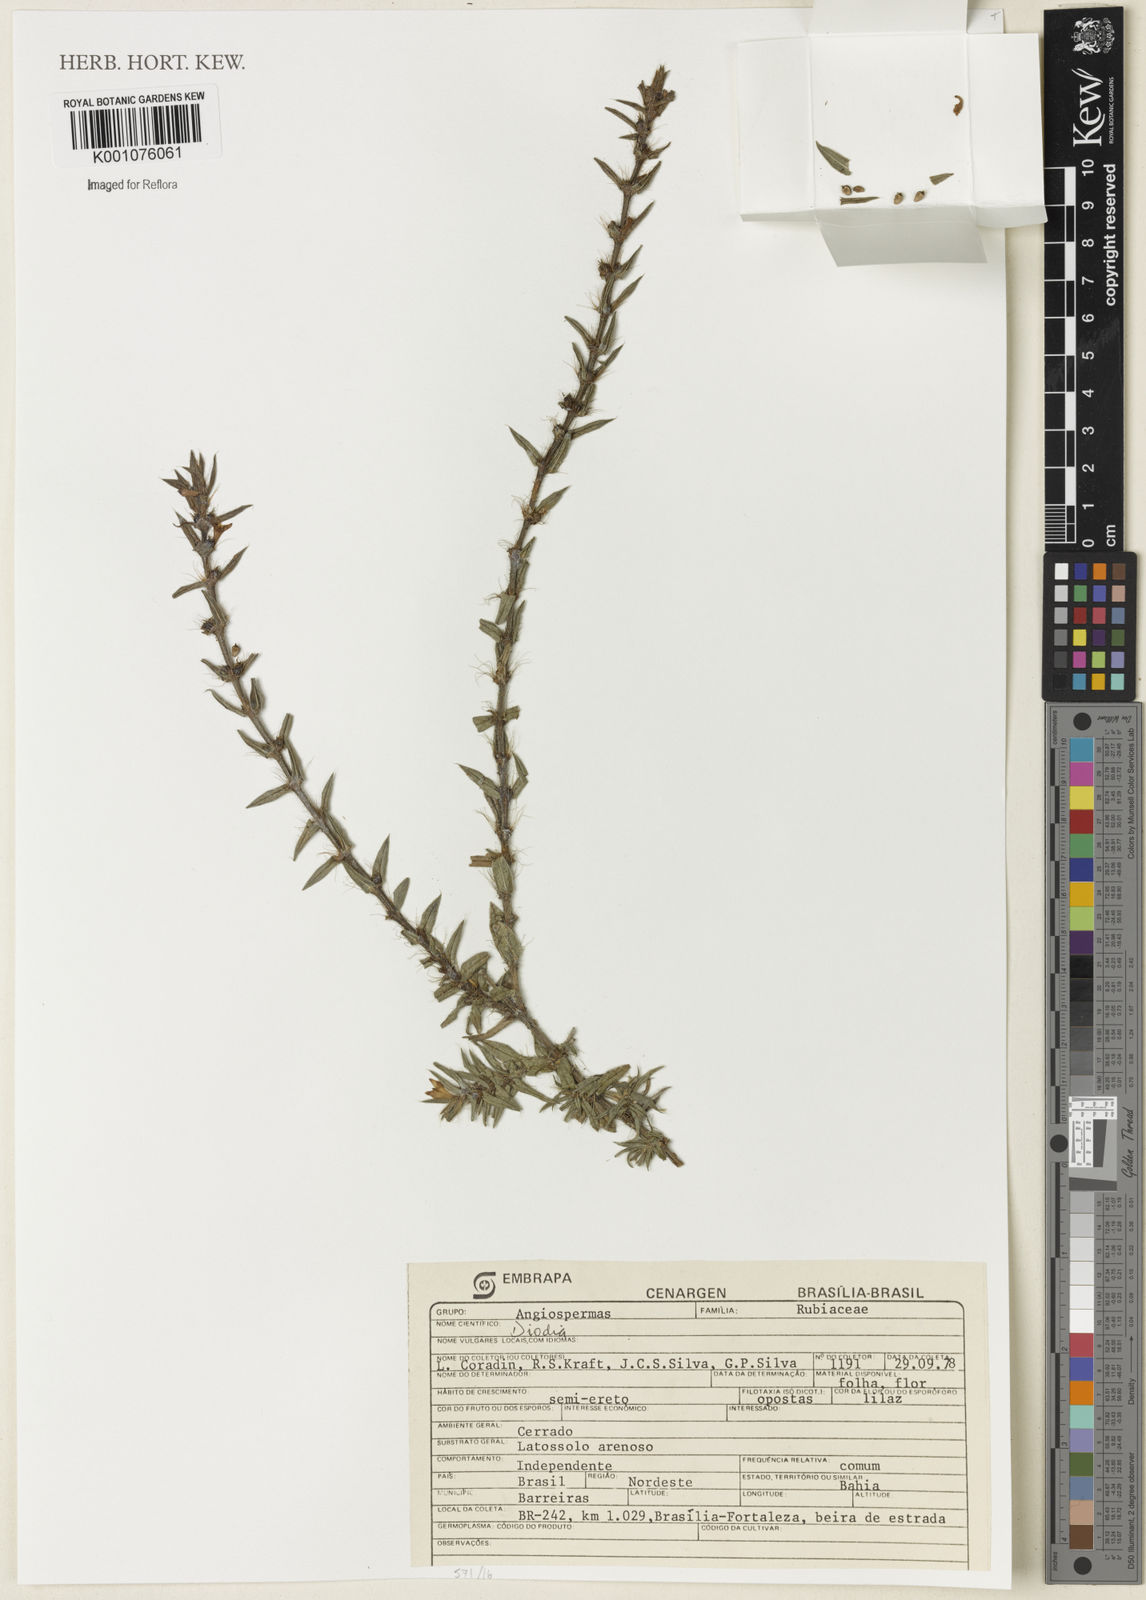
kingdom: Plantae
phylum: Tracheophyta
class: Magnoliopsida
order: Gentianales
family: Rubiaceae
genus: Diodia
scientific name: Diodia
